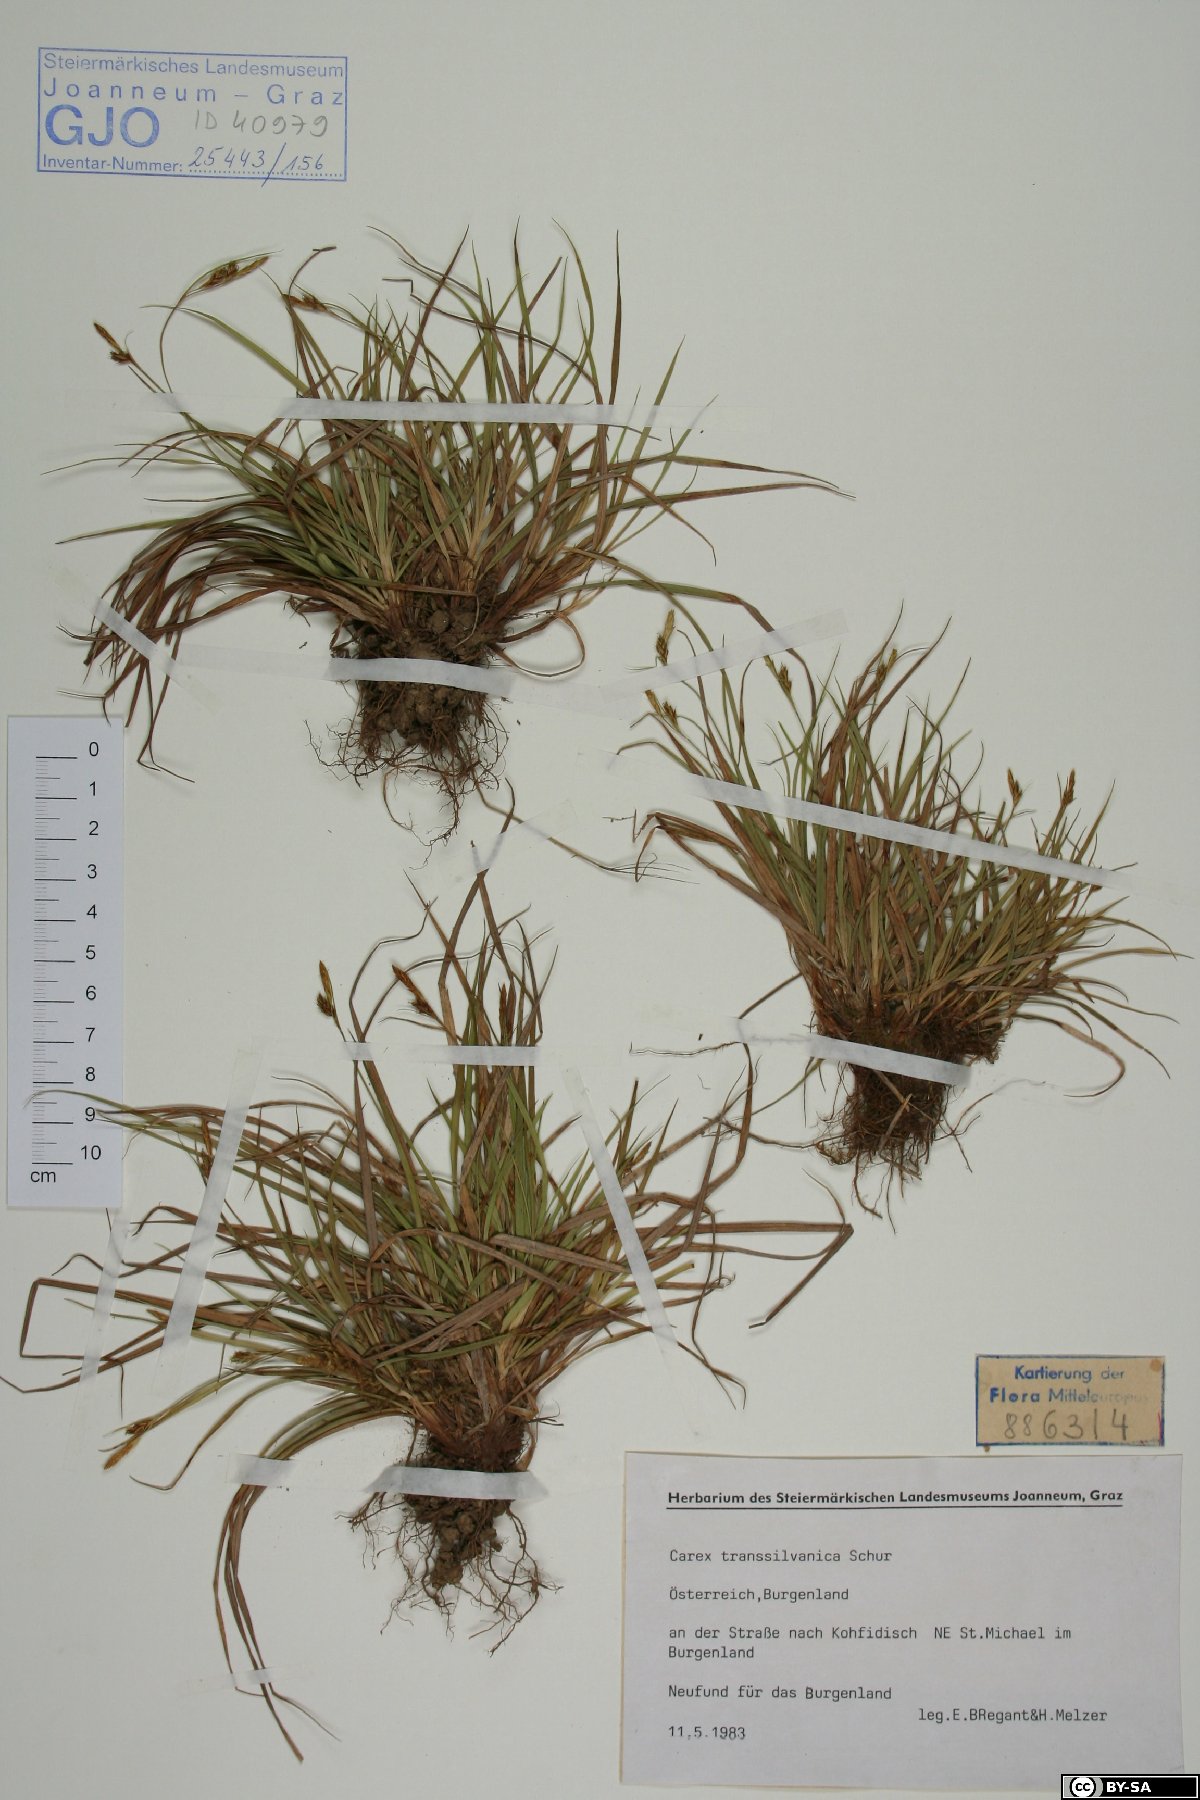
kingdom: Plantae
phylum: Tracheophyta
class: Liliopsida
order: Poales
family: Cyperaceae
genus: Carex
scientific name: Carex depressa
